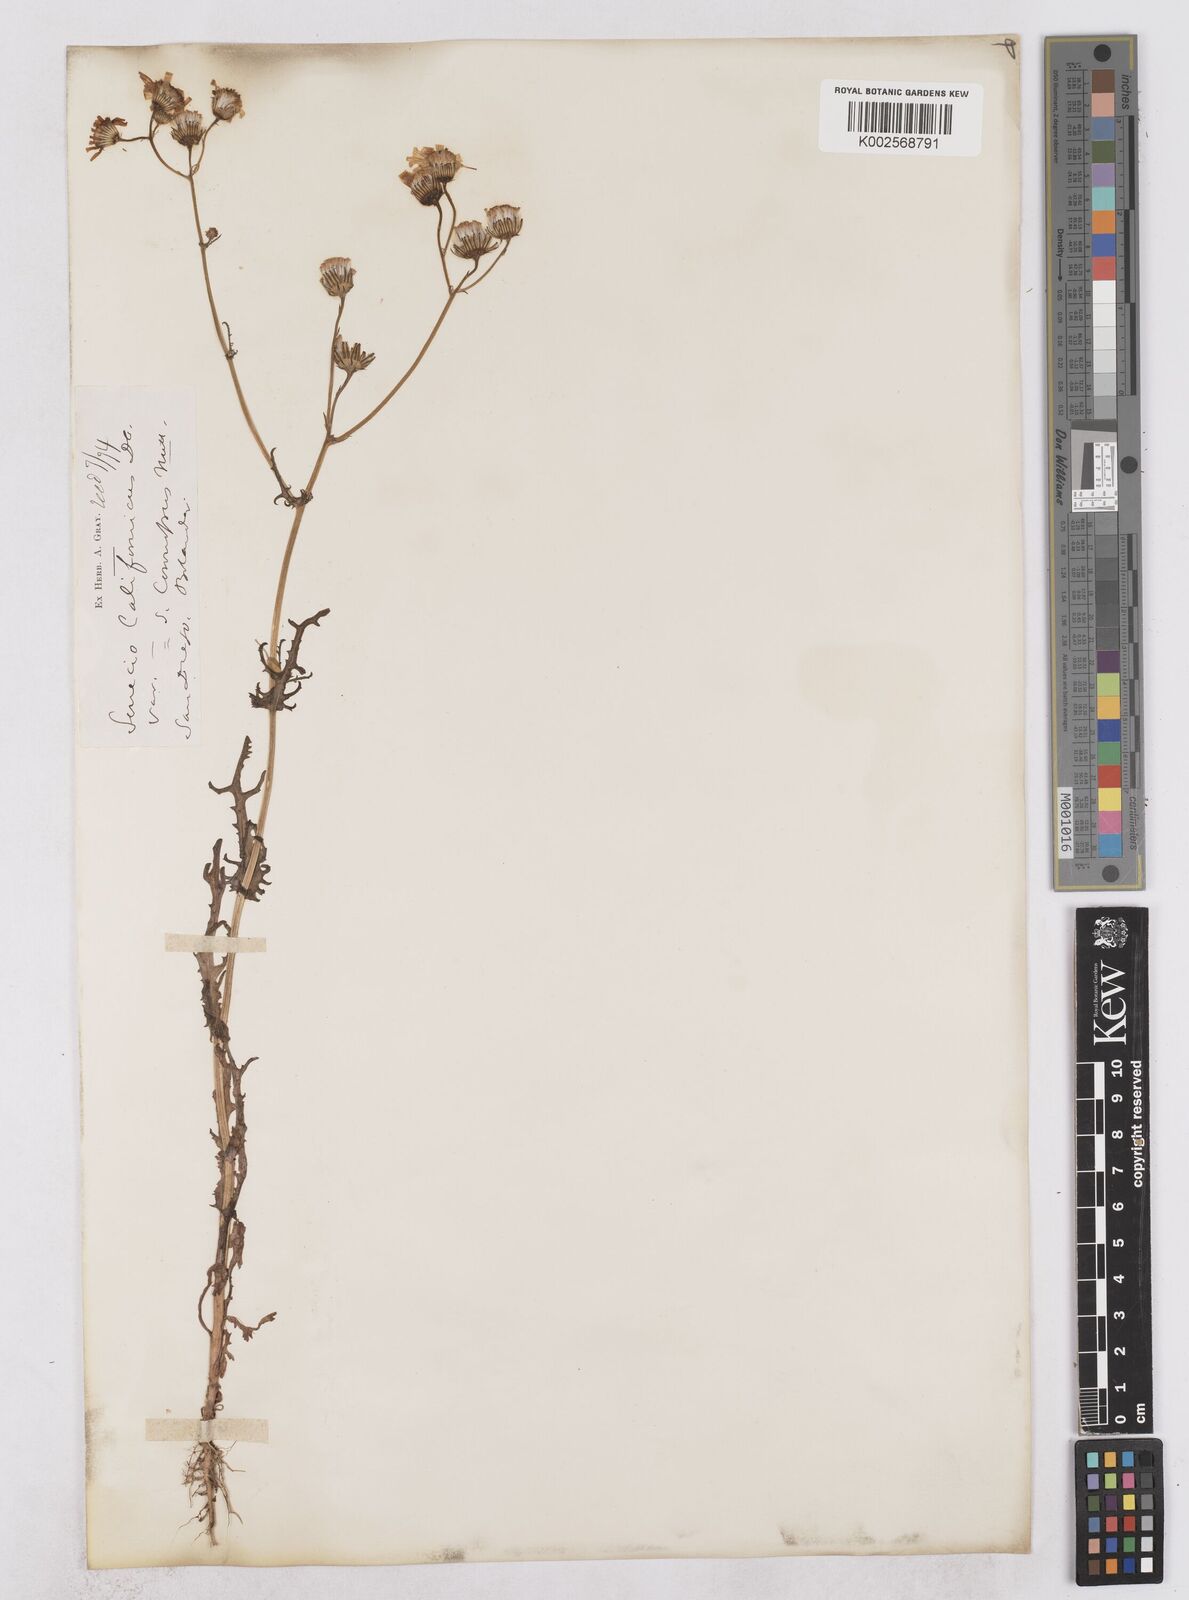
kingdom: Plantae
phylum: Tracheophyta
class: Magnoliopsida
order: Asterales
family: Asteraceae
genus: Senecio
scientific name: Senecio californicus
